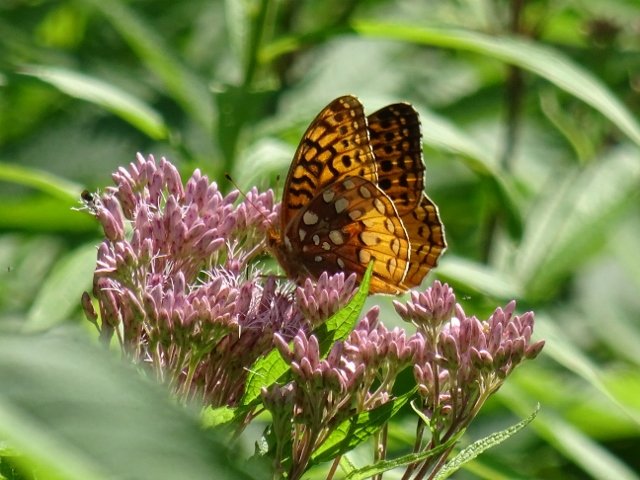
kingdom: Animalia
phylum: Arthropoda
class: Insecta
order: Lepidoptera
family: Nymphalidae
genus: Speyeria
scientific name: Speyeria cybele
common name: Great Spangled Fritillary
